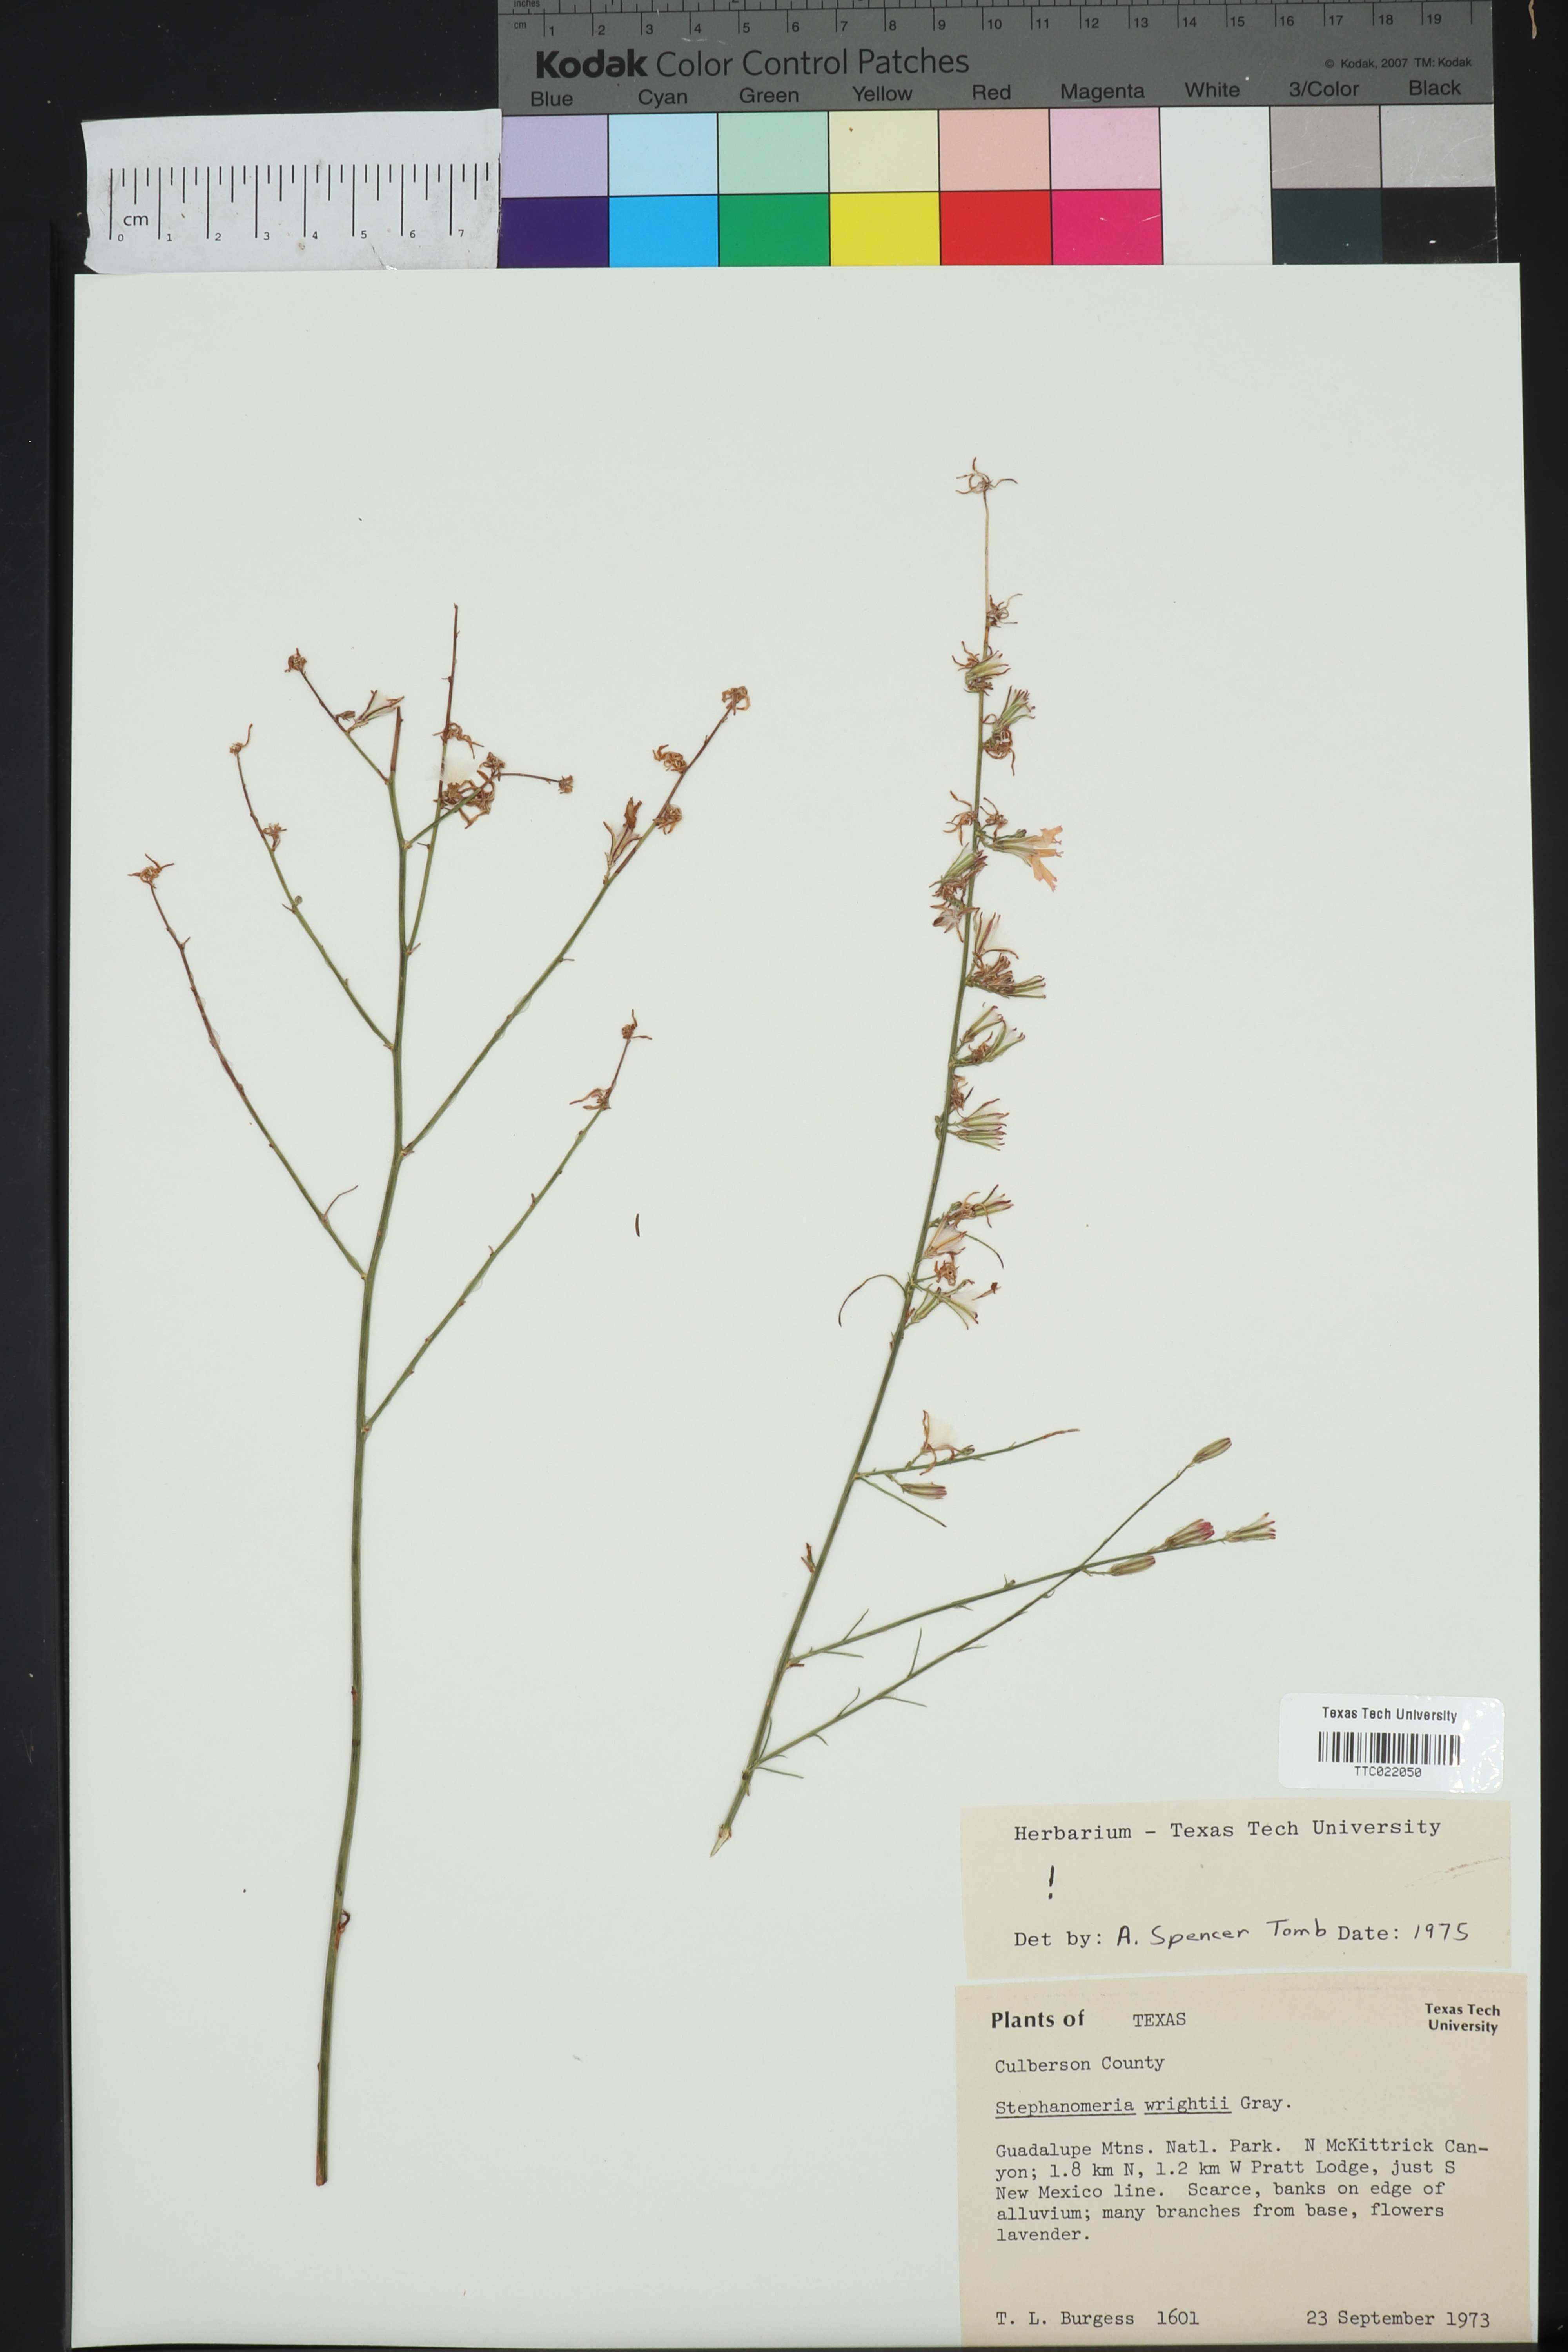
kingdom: Plantae
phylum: Tracheophyta
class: Magnoliopsida
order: Asterales
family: Asteraceae
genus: Stephanomeria
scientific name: Stephanomeria tenuifolia
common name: Slender wirelettuce
